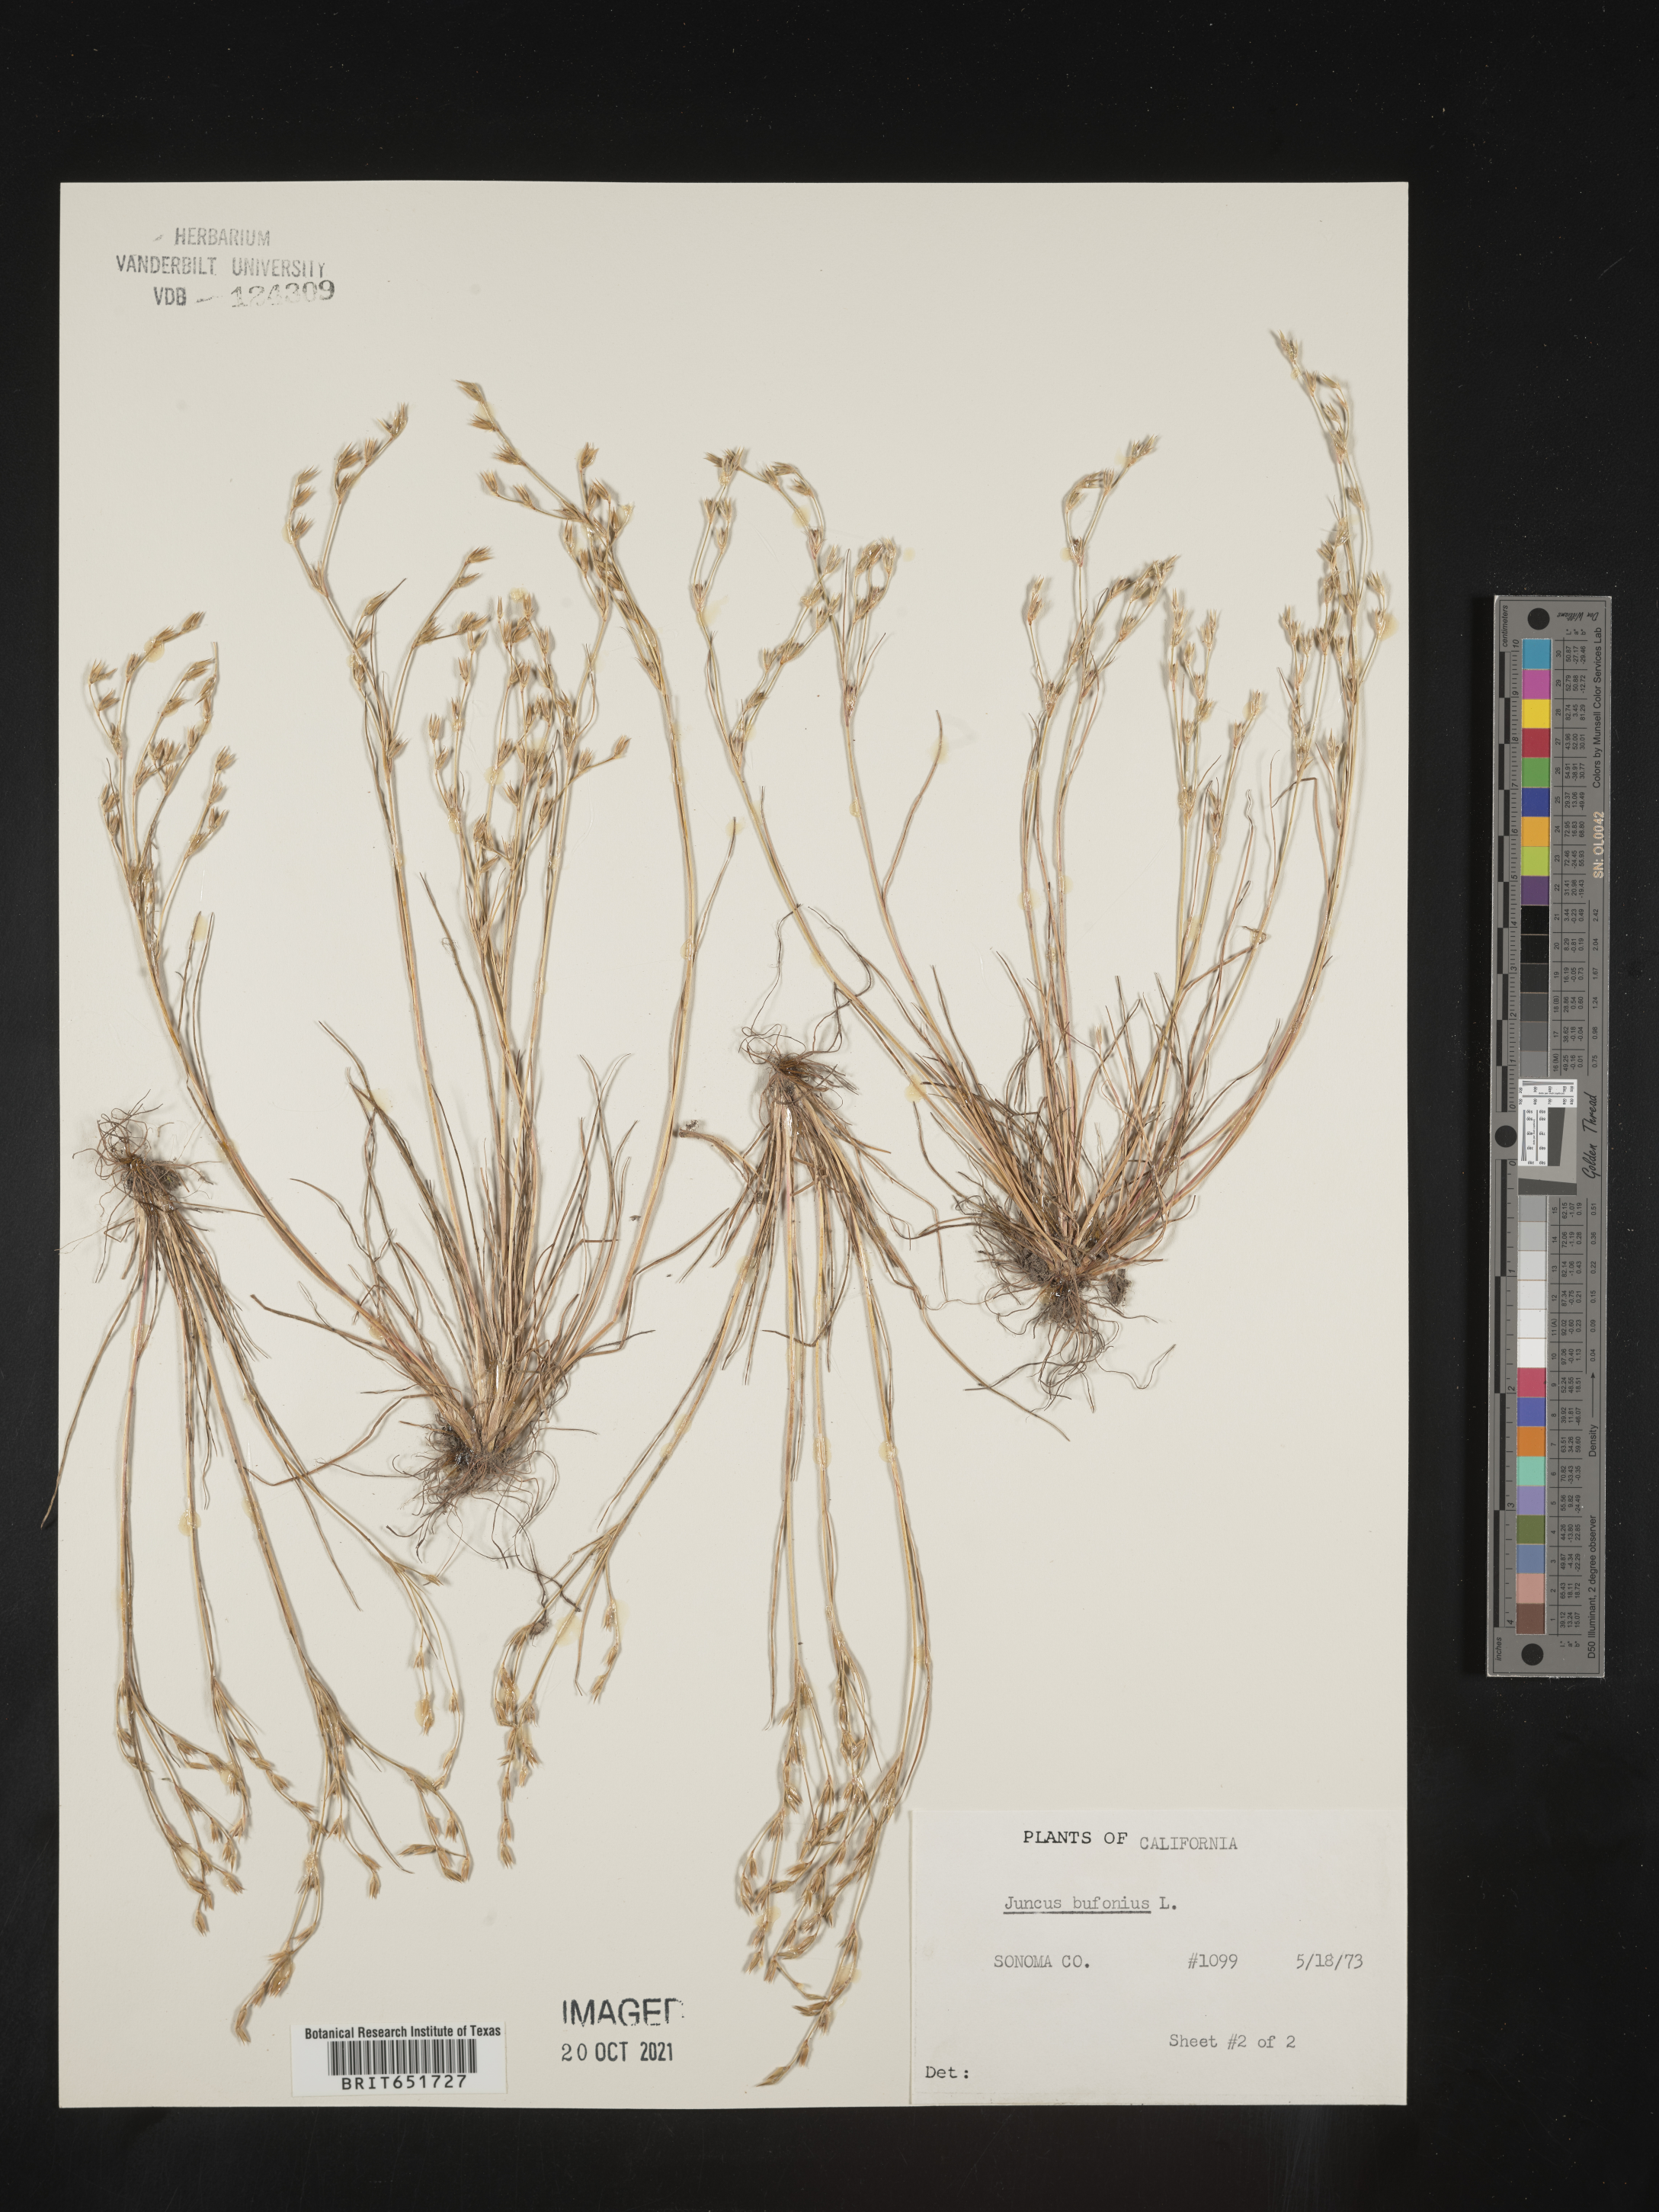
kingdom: Plantae
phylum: Tracheophyta
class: Liliopsida
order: Poales
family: Juncaceae
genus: Juncus
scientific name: Juncus bufonius
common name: Toad rush
